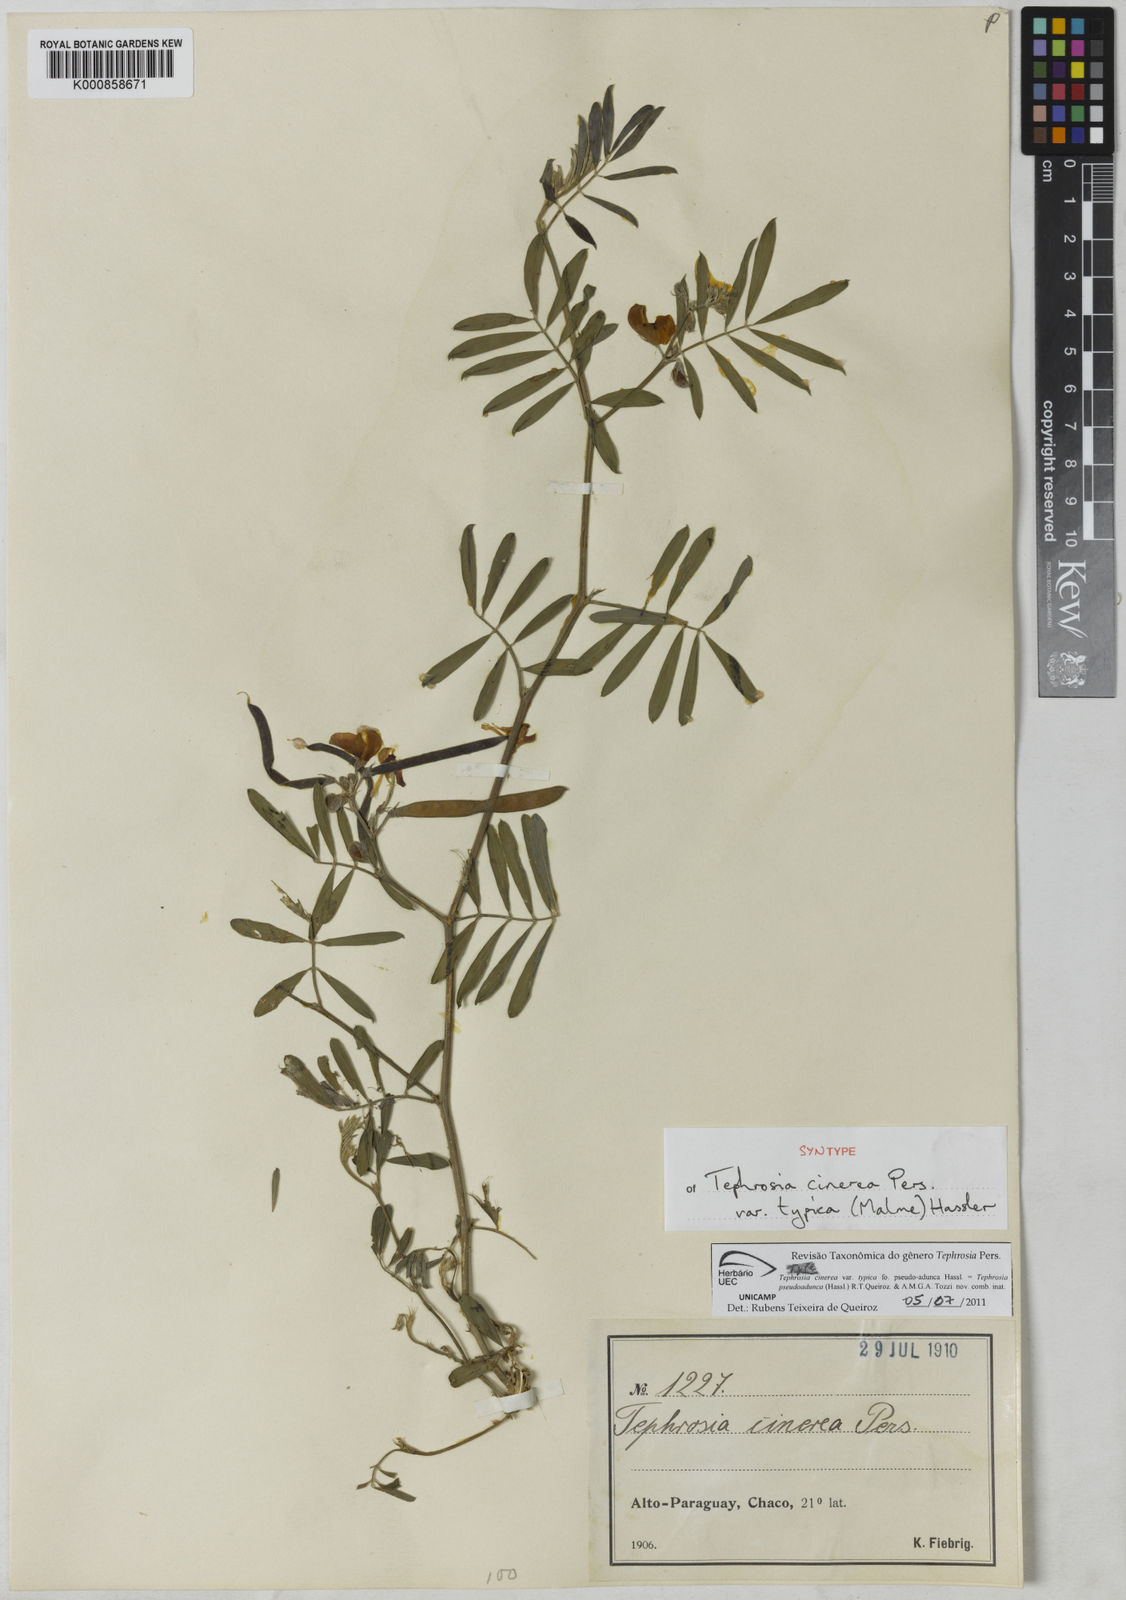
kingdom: Plantae
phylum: Tracheophyta
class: Magnoliopsida
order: Fabales
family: Fabaceae
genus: Tephrosia
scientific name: Tephrosia
